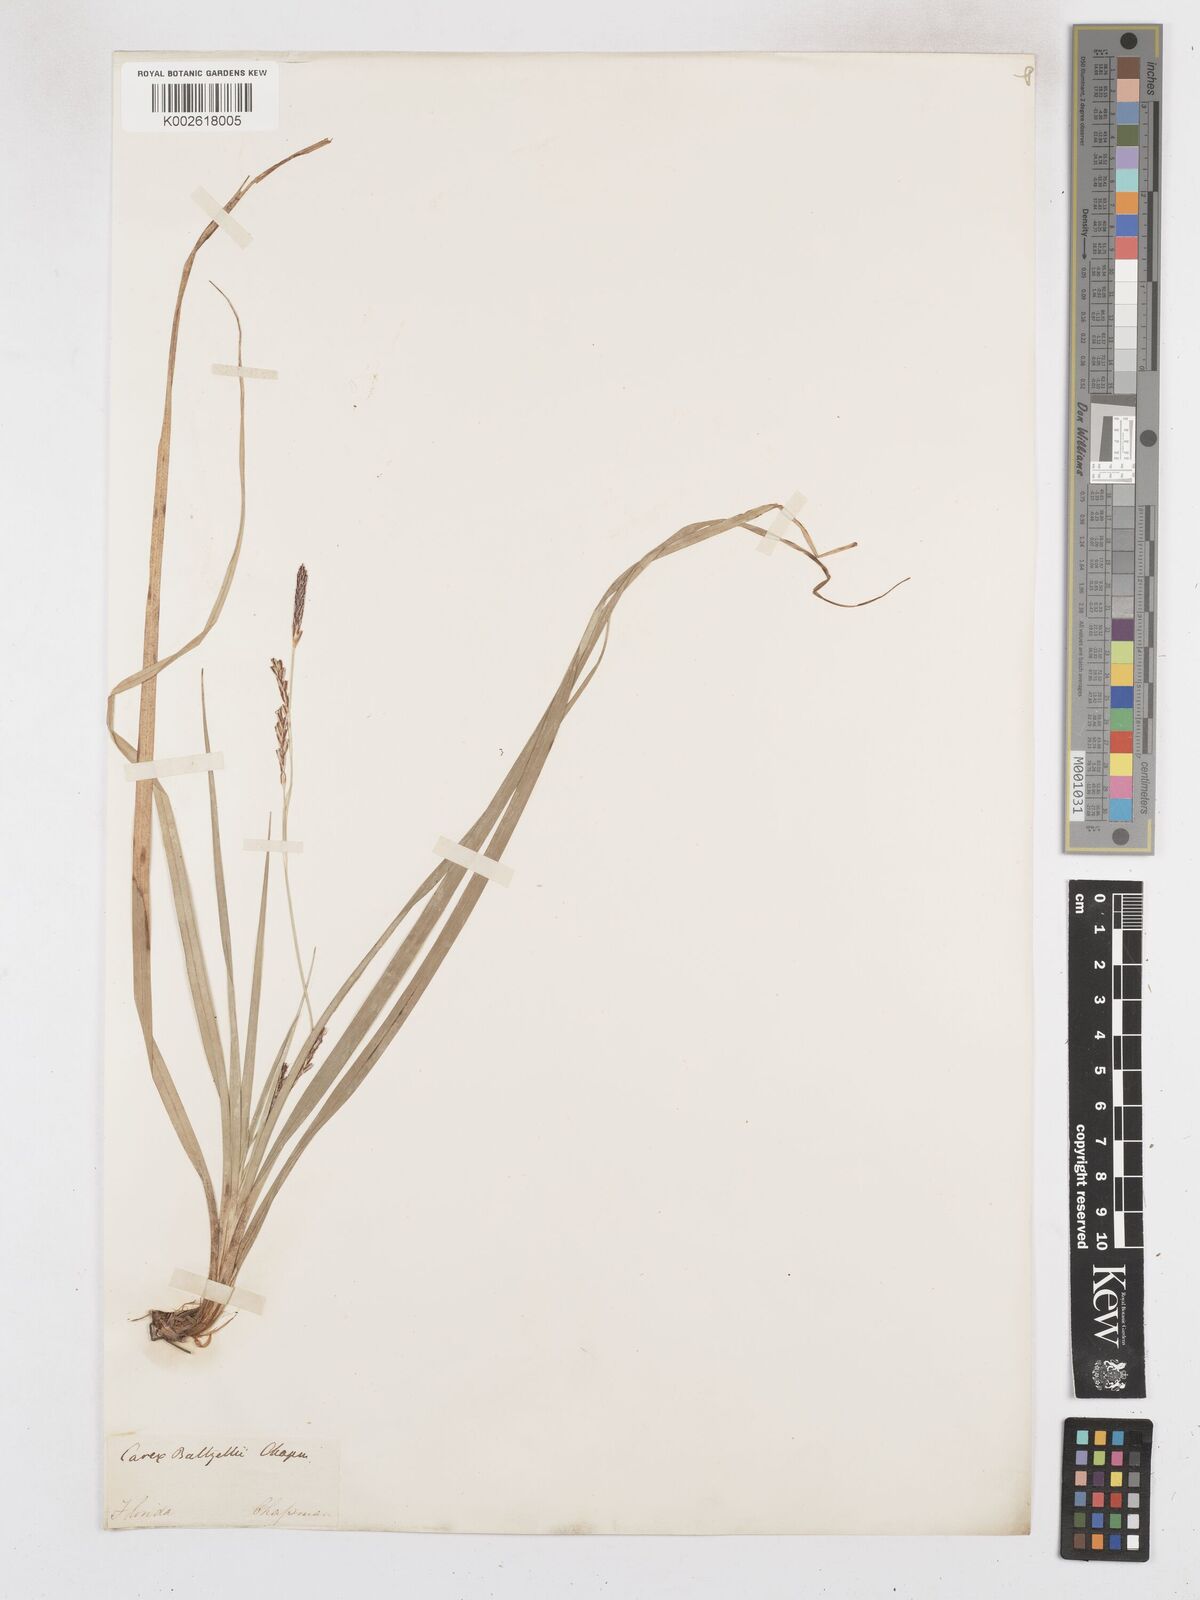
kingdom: Plantae
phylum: Tracheophyta
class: Liliopsida
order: Poales
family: Cyperaceae
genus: Carex
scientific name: Carex baltzellii
